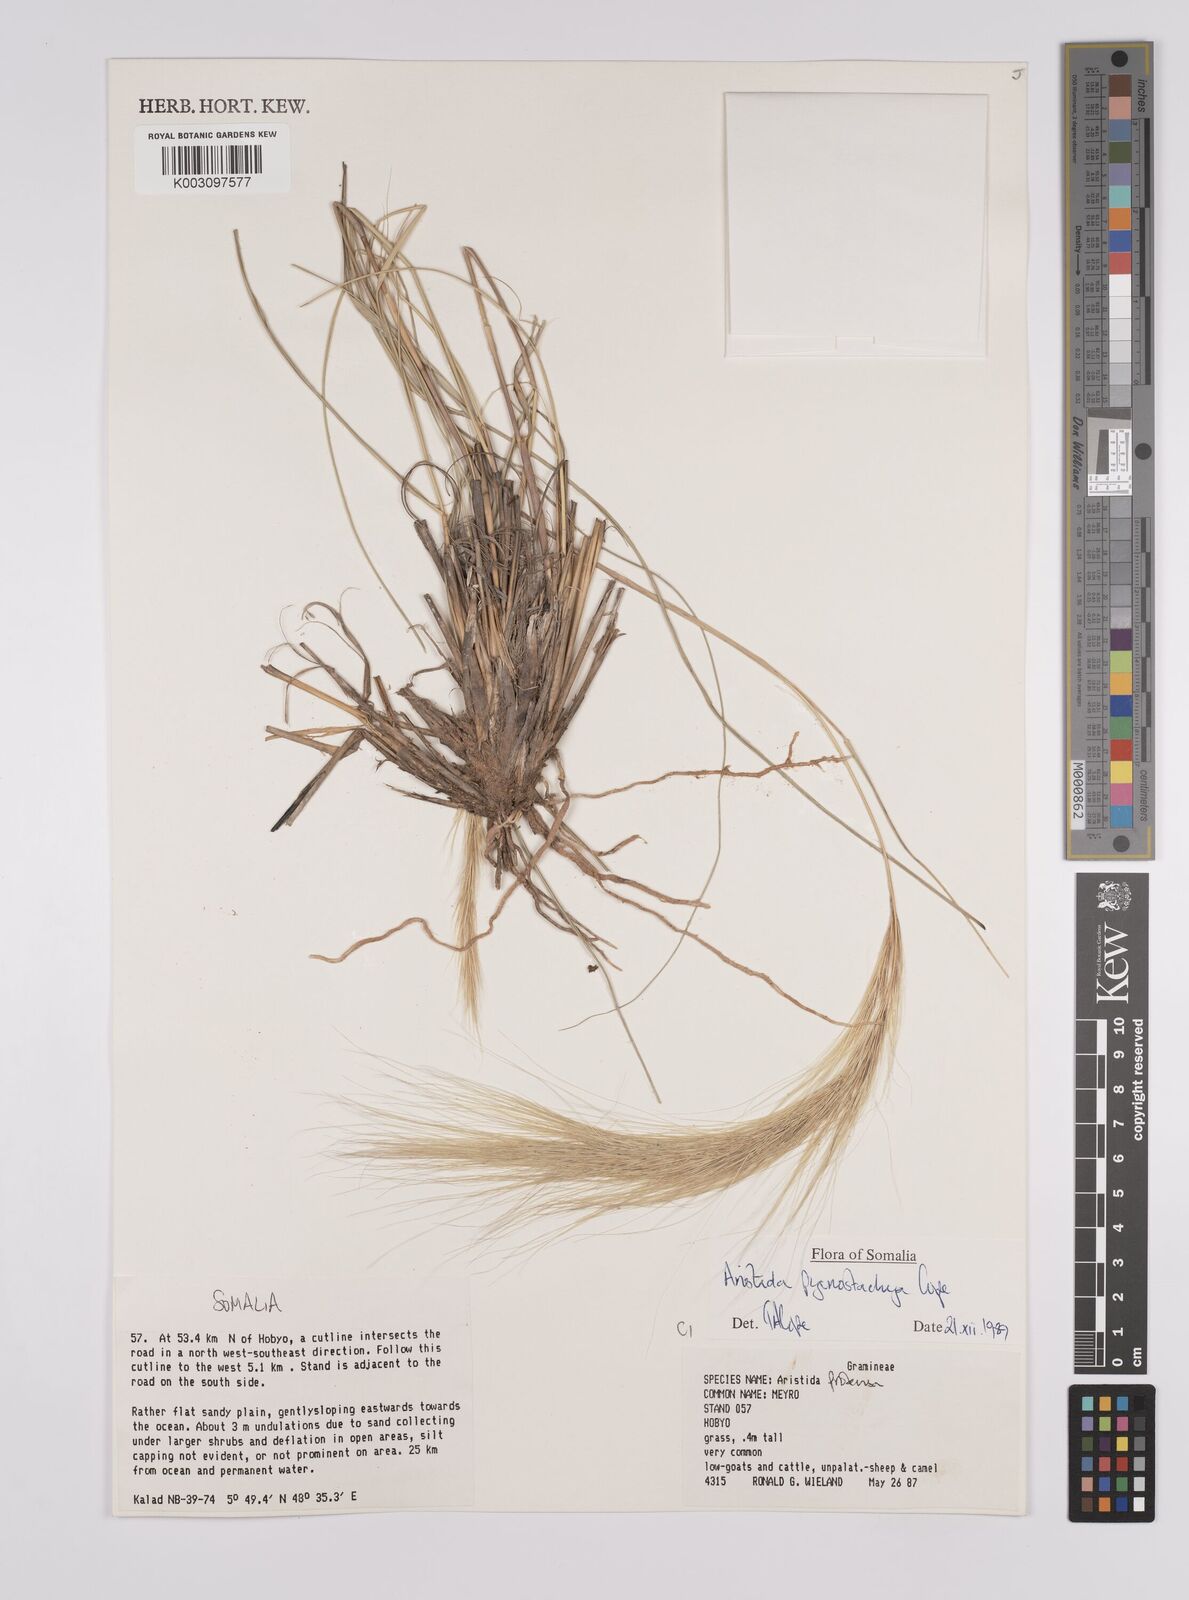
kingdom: Plantae
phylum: Tracheophyta
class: Liliopsida
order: Poales
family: Poaceae
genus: Aristida
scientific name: Aristida pycnostachya
